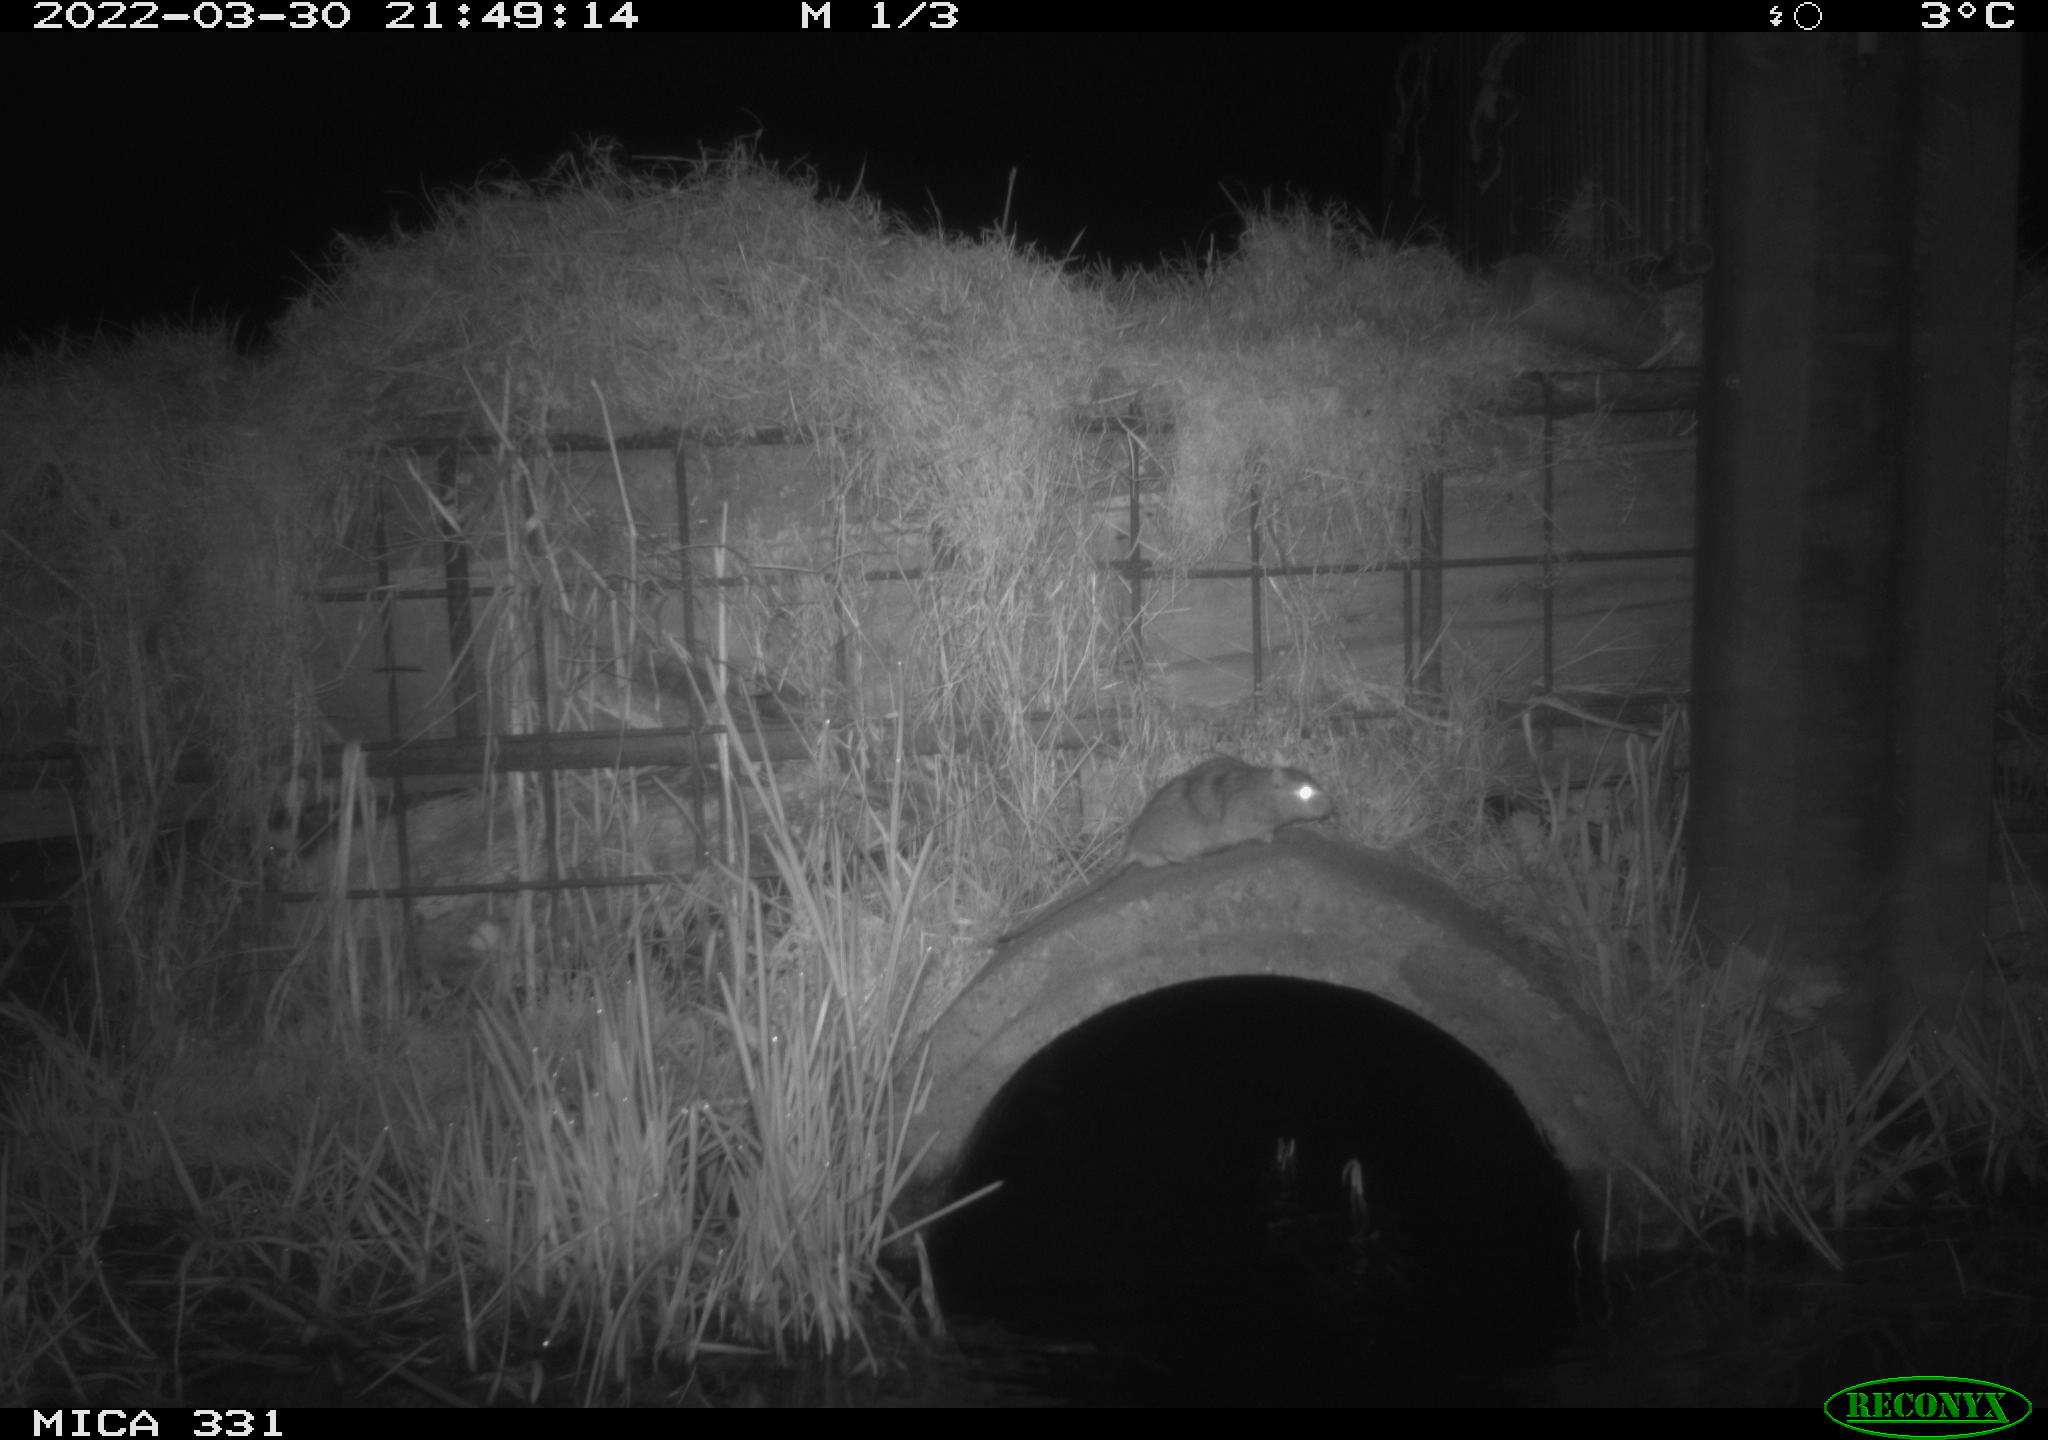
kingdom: Animalia
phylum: Chordata
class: Mammalia
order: Rodentia
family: Muridae
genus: Rattus
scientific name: Rattus norvegicus
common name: Brown rat
